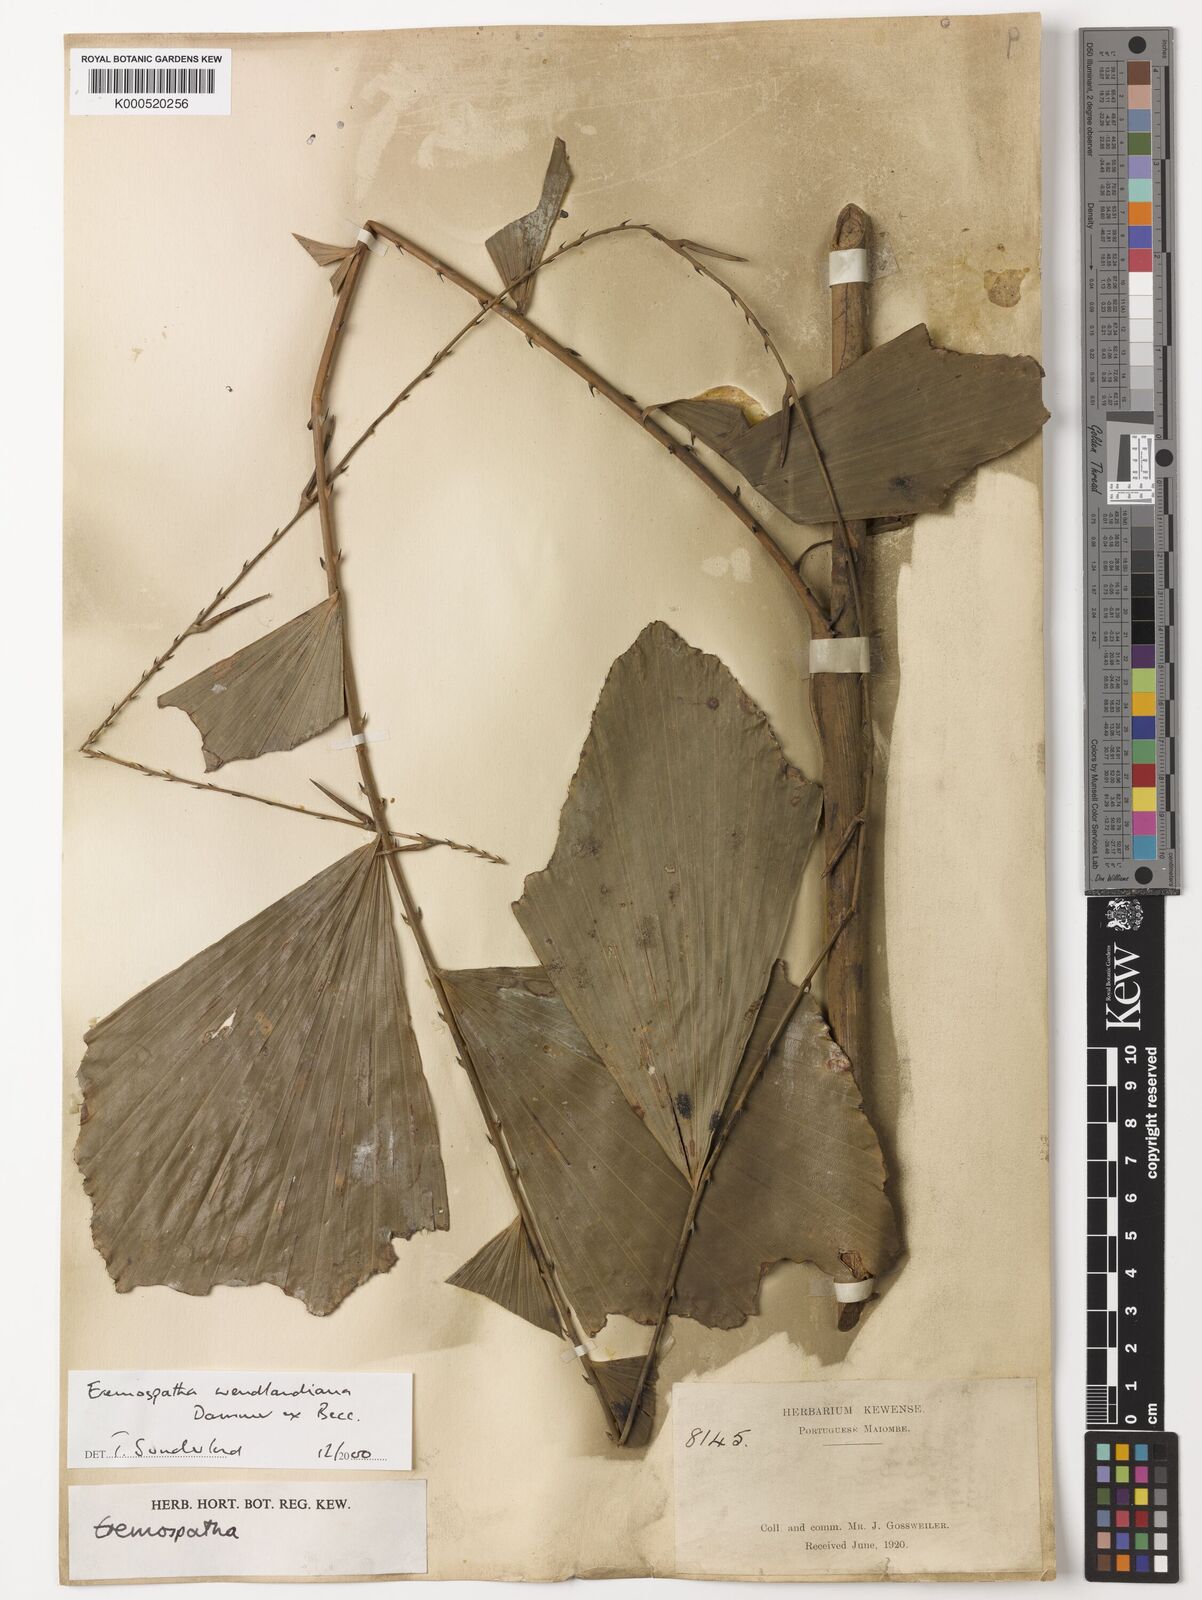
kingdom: Plantae
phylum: Tracheophyta
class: Liliopsida
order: Arecales
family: Arecaceae
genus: Eremospatha
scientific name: Eremospatha wendlandiana
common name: Rattan
